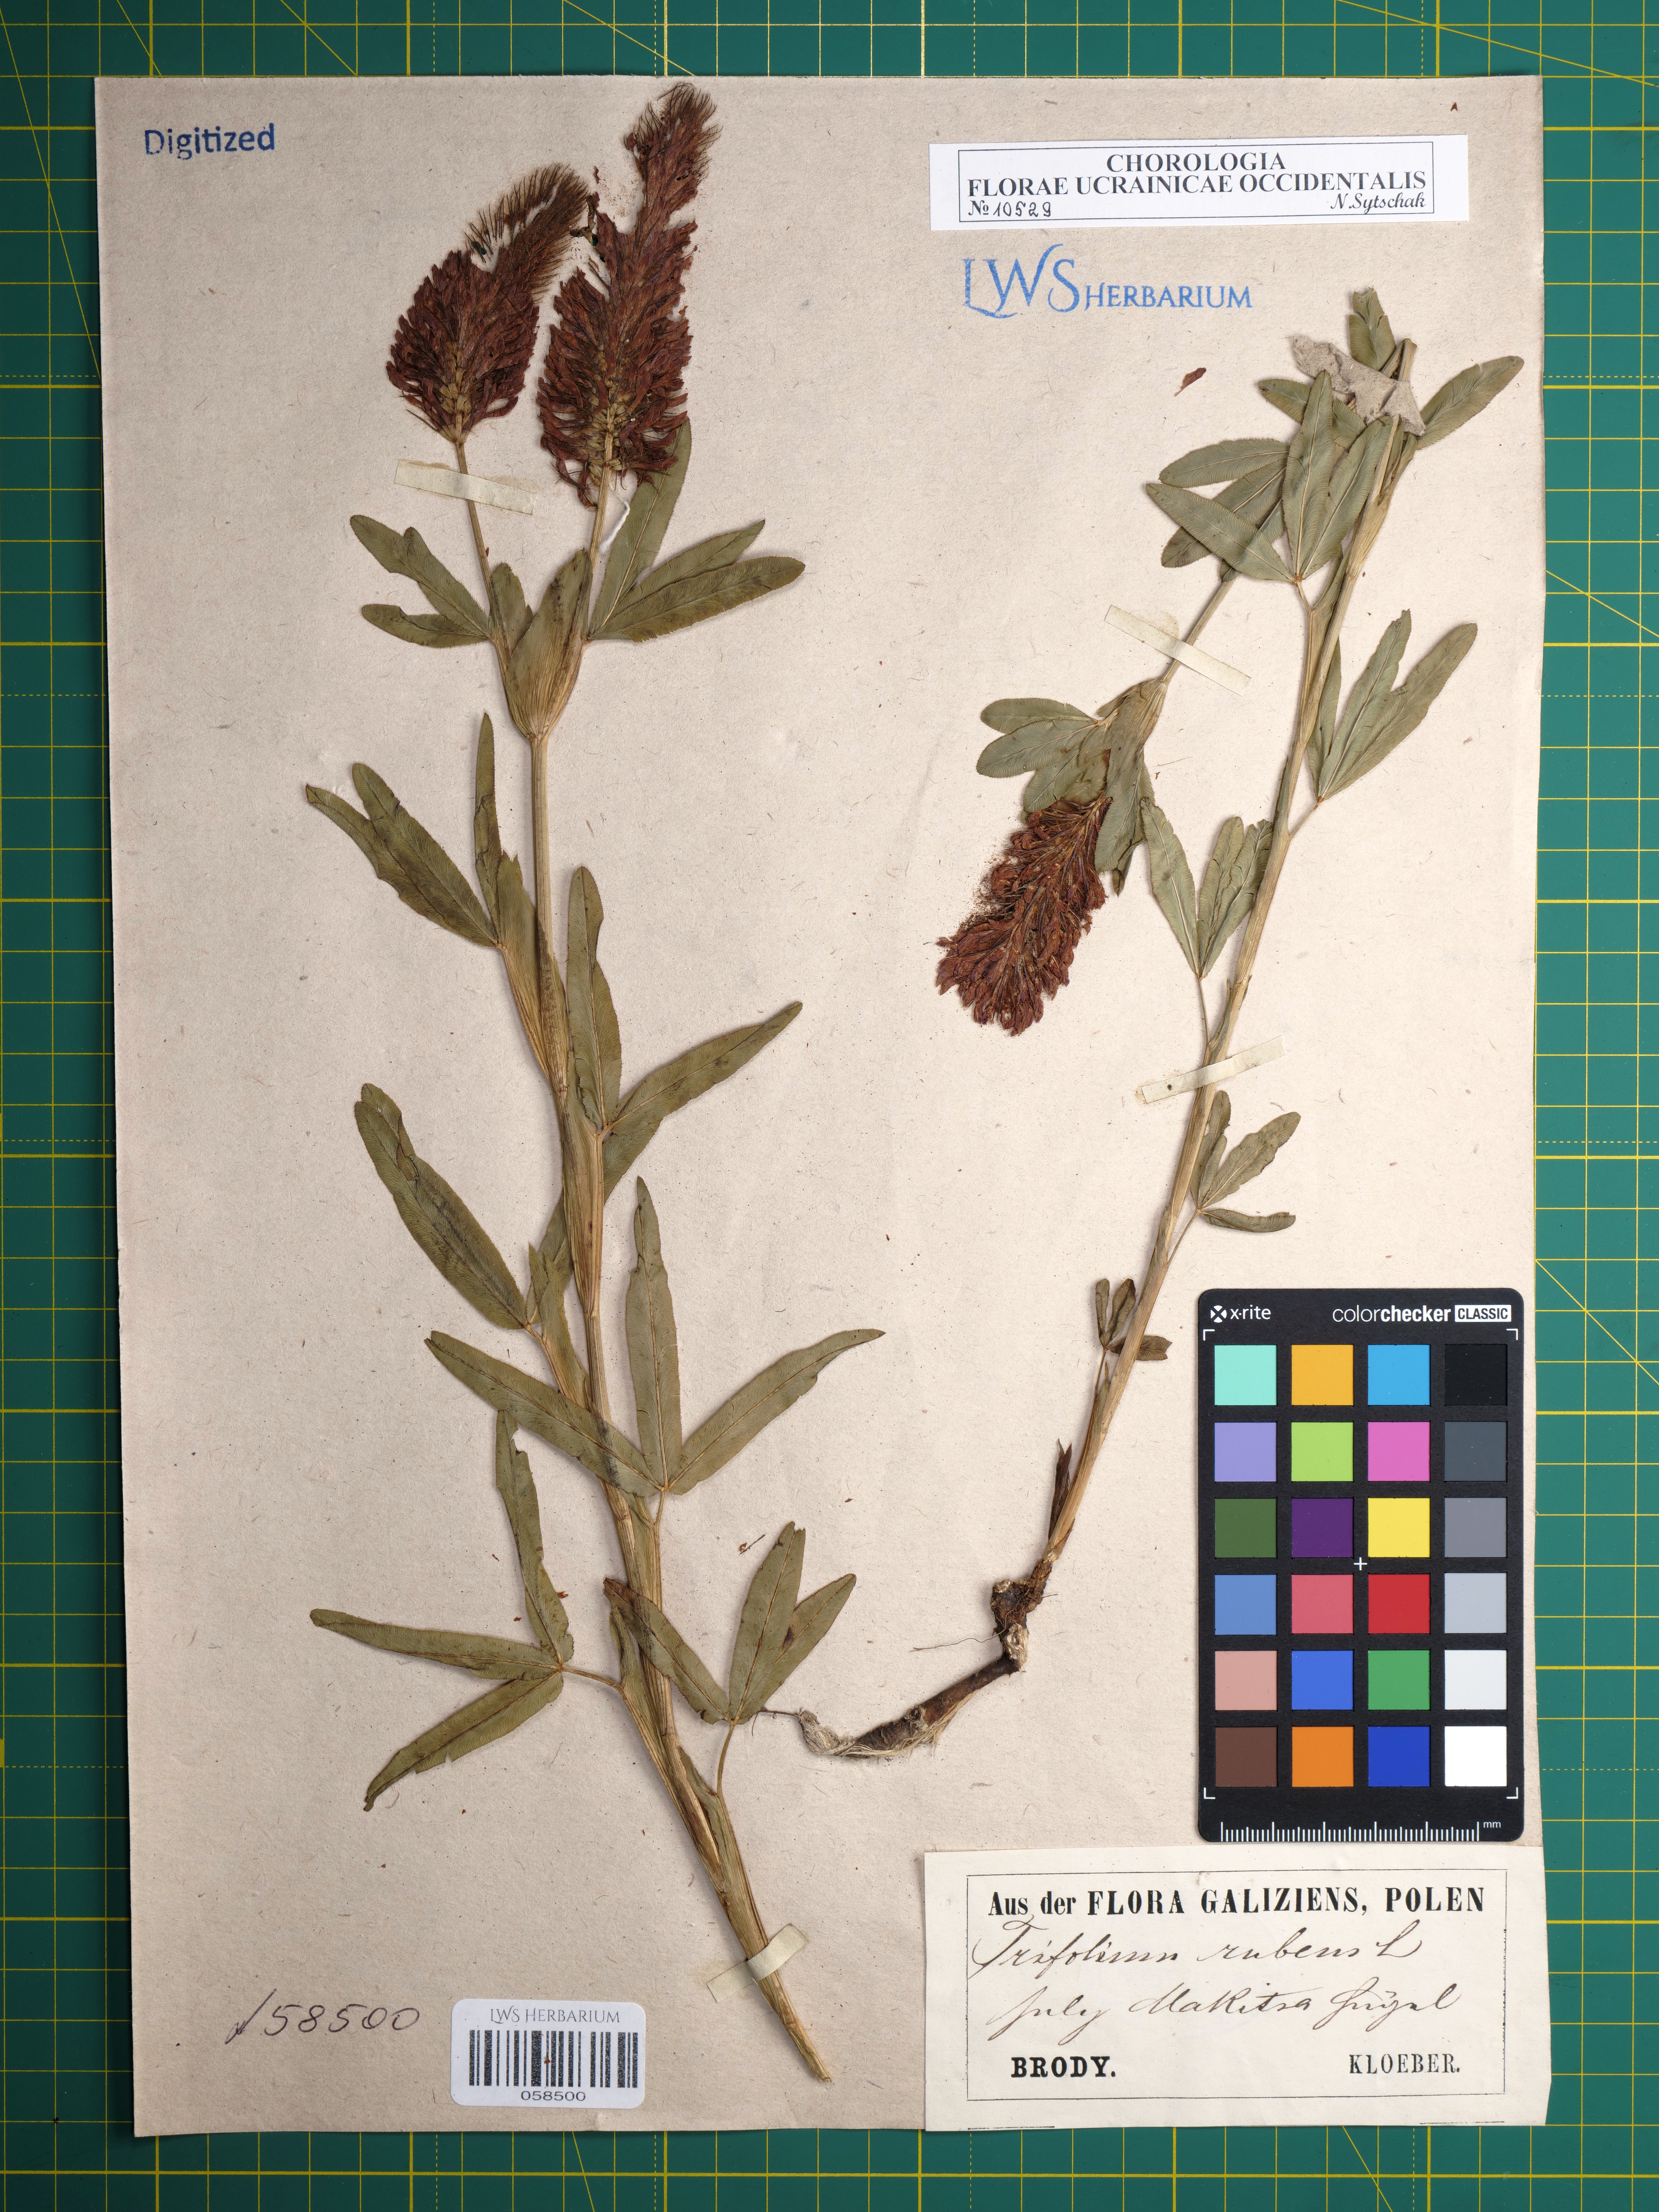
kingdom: Plantae
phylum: Tracheophyta
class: Magnoliopsida
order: Fabales
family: Fabaceae
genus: Trifolium
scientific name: Trifolium rubens
